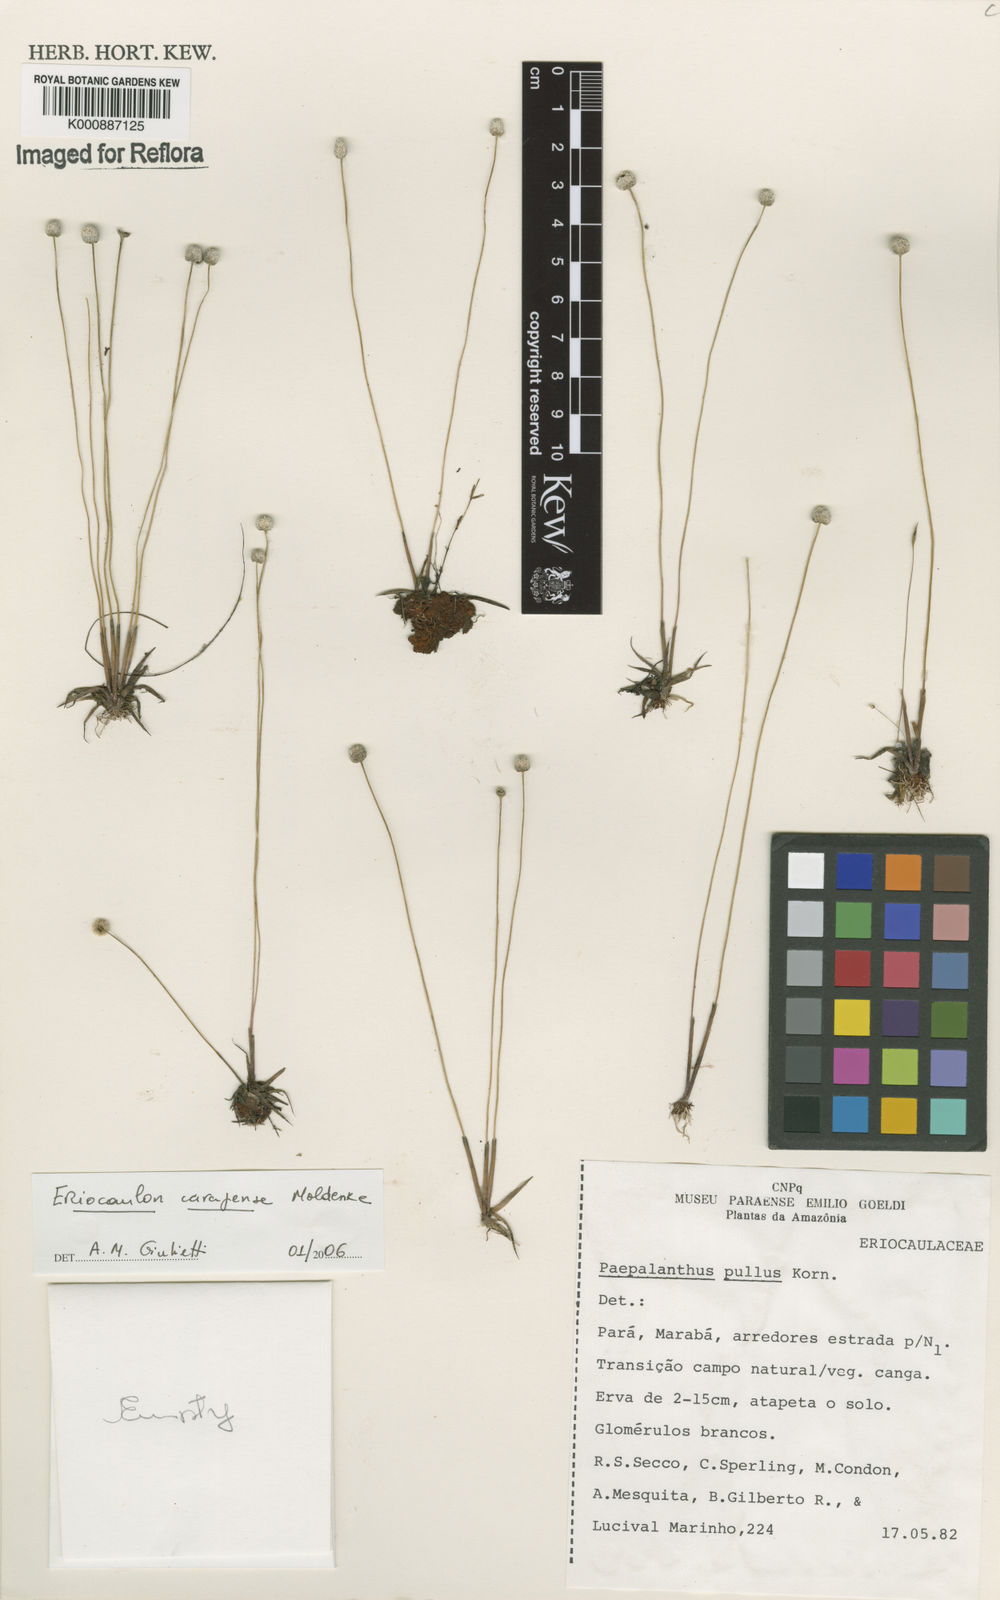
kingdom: Plantae
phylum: Tracheophyta
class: Liliopsida
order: Poales
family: Eriocaulaceae
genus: Eriocaulon
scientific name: Eriocaulon carajense
